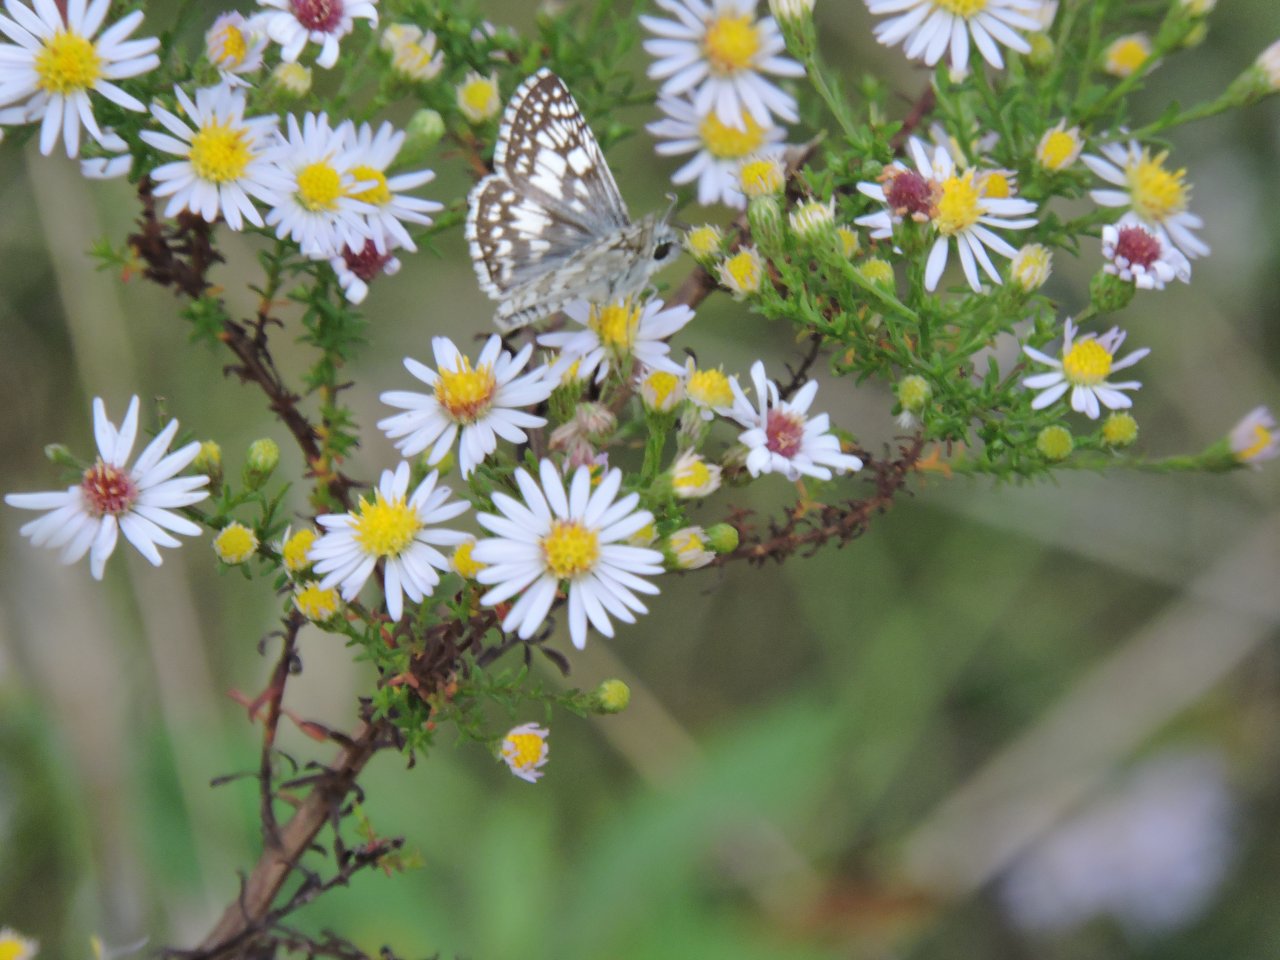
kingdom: Animalia
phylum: Arthropoda
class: Insecta
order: Lepidoptera
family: Hesperiidae
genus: Pyrgus
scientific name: Pyrgus
